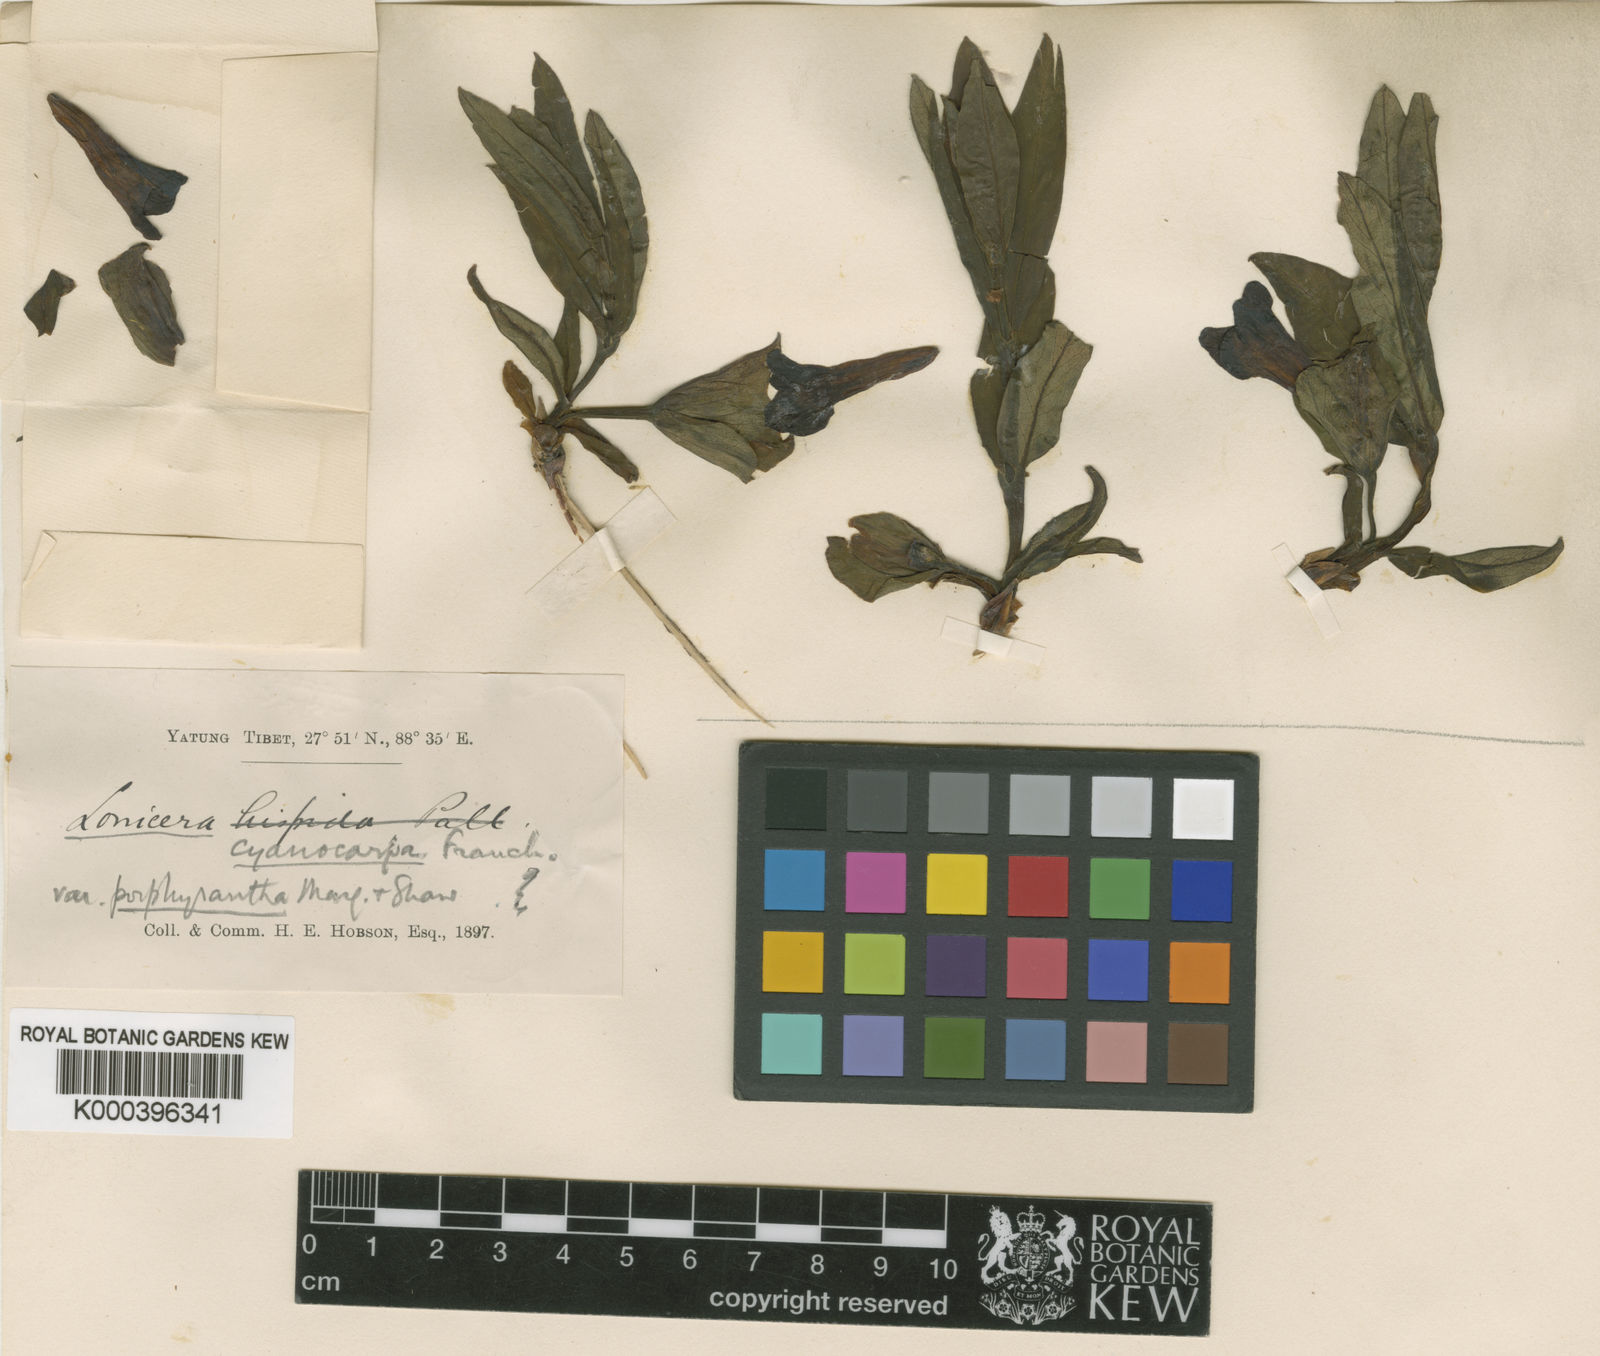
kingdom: Plantae
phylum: Tracheophyta
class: Magnoliopsida
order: Dipsacales
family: Caprifoliaceae
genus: Lonicera
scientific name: Lonicera cyanocarpa
